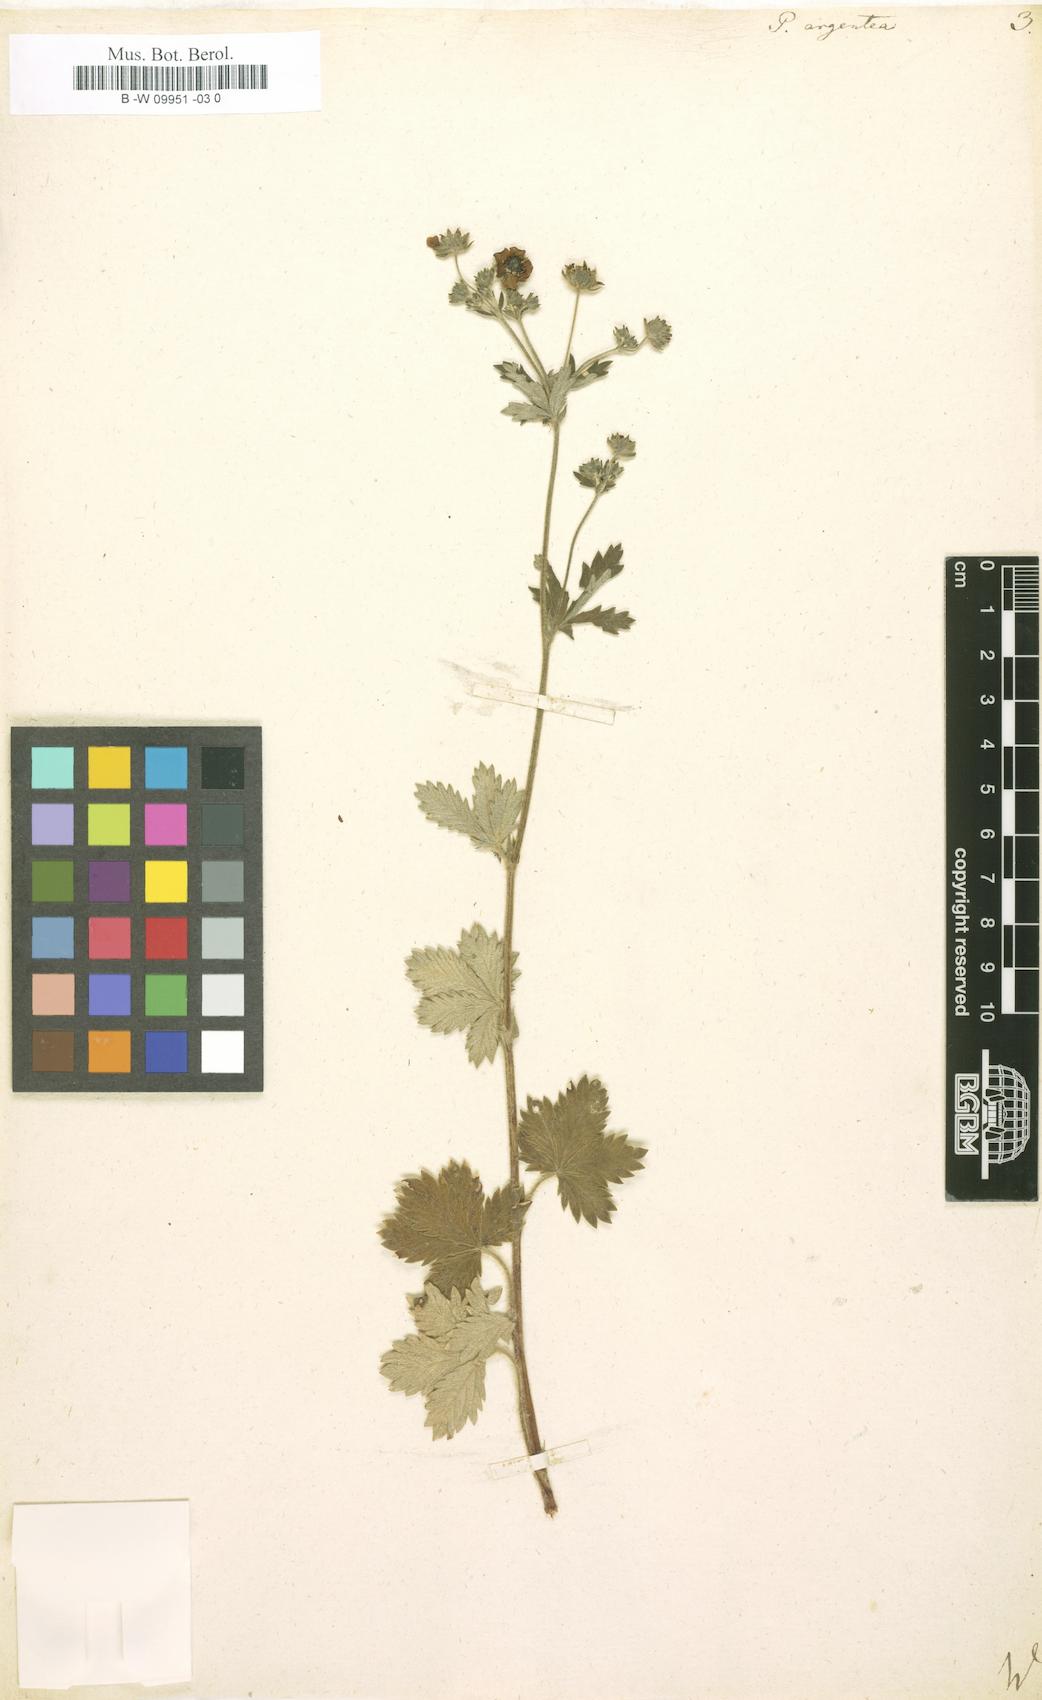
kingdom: Plantae
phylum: Tracheophyta
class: Magnoliopsida
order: Rosales
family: Rosaceae
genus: Potentilla
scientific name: Potentilla argentea
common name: Hoary cinquefoil
